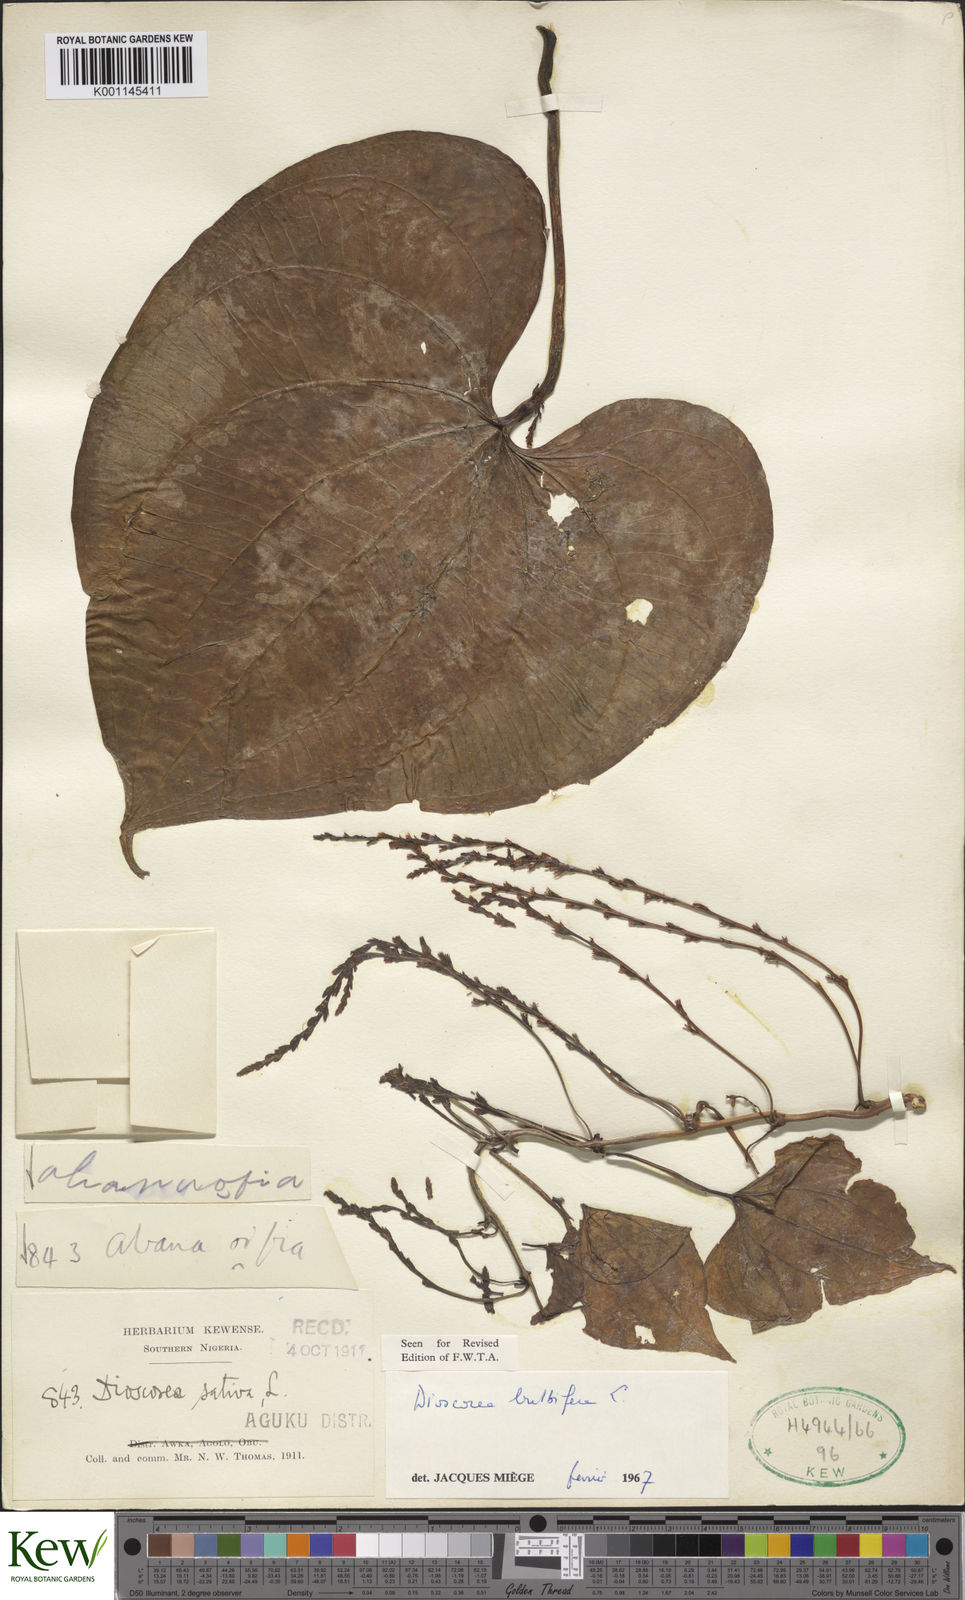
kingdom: Plantae
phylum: Tracheophyta
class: Liliopsida
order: Dioscoreales
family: Dioscoreaceae
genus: Dioscorea
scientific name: Dioscorea bulbifera
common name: Air yam
